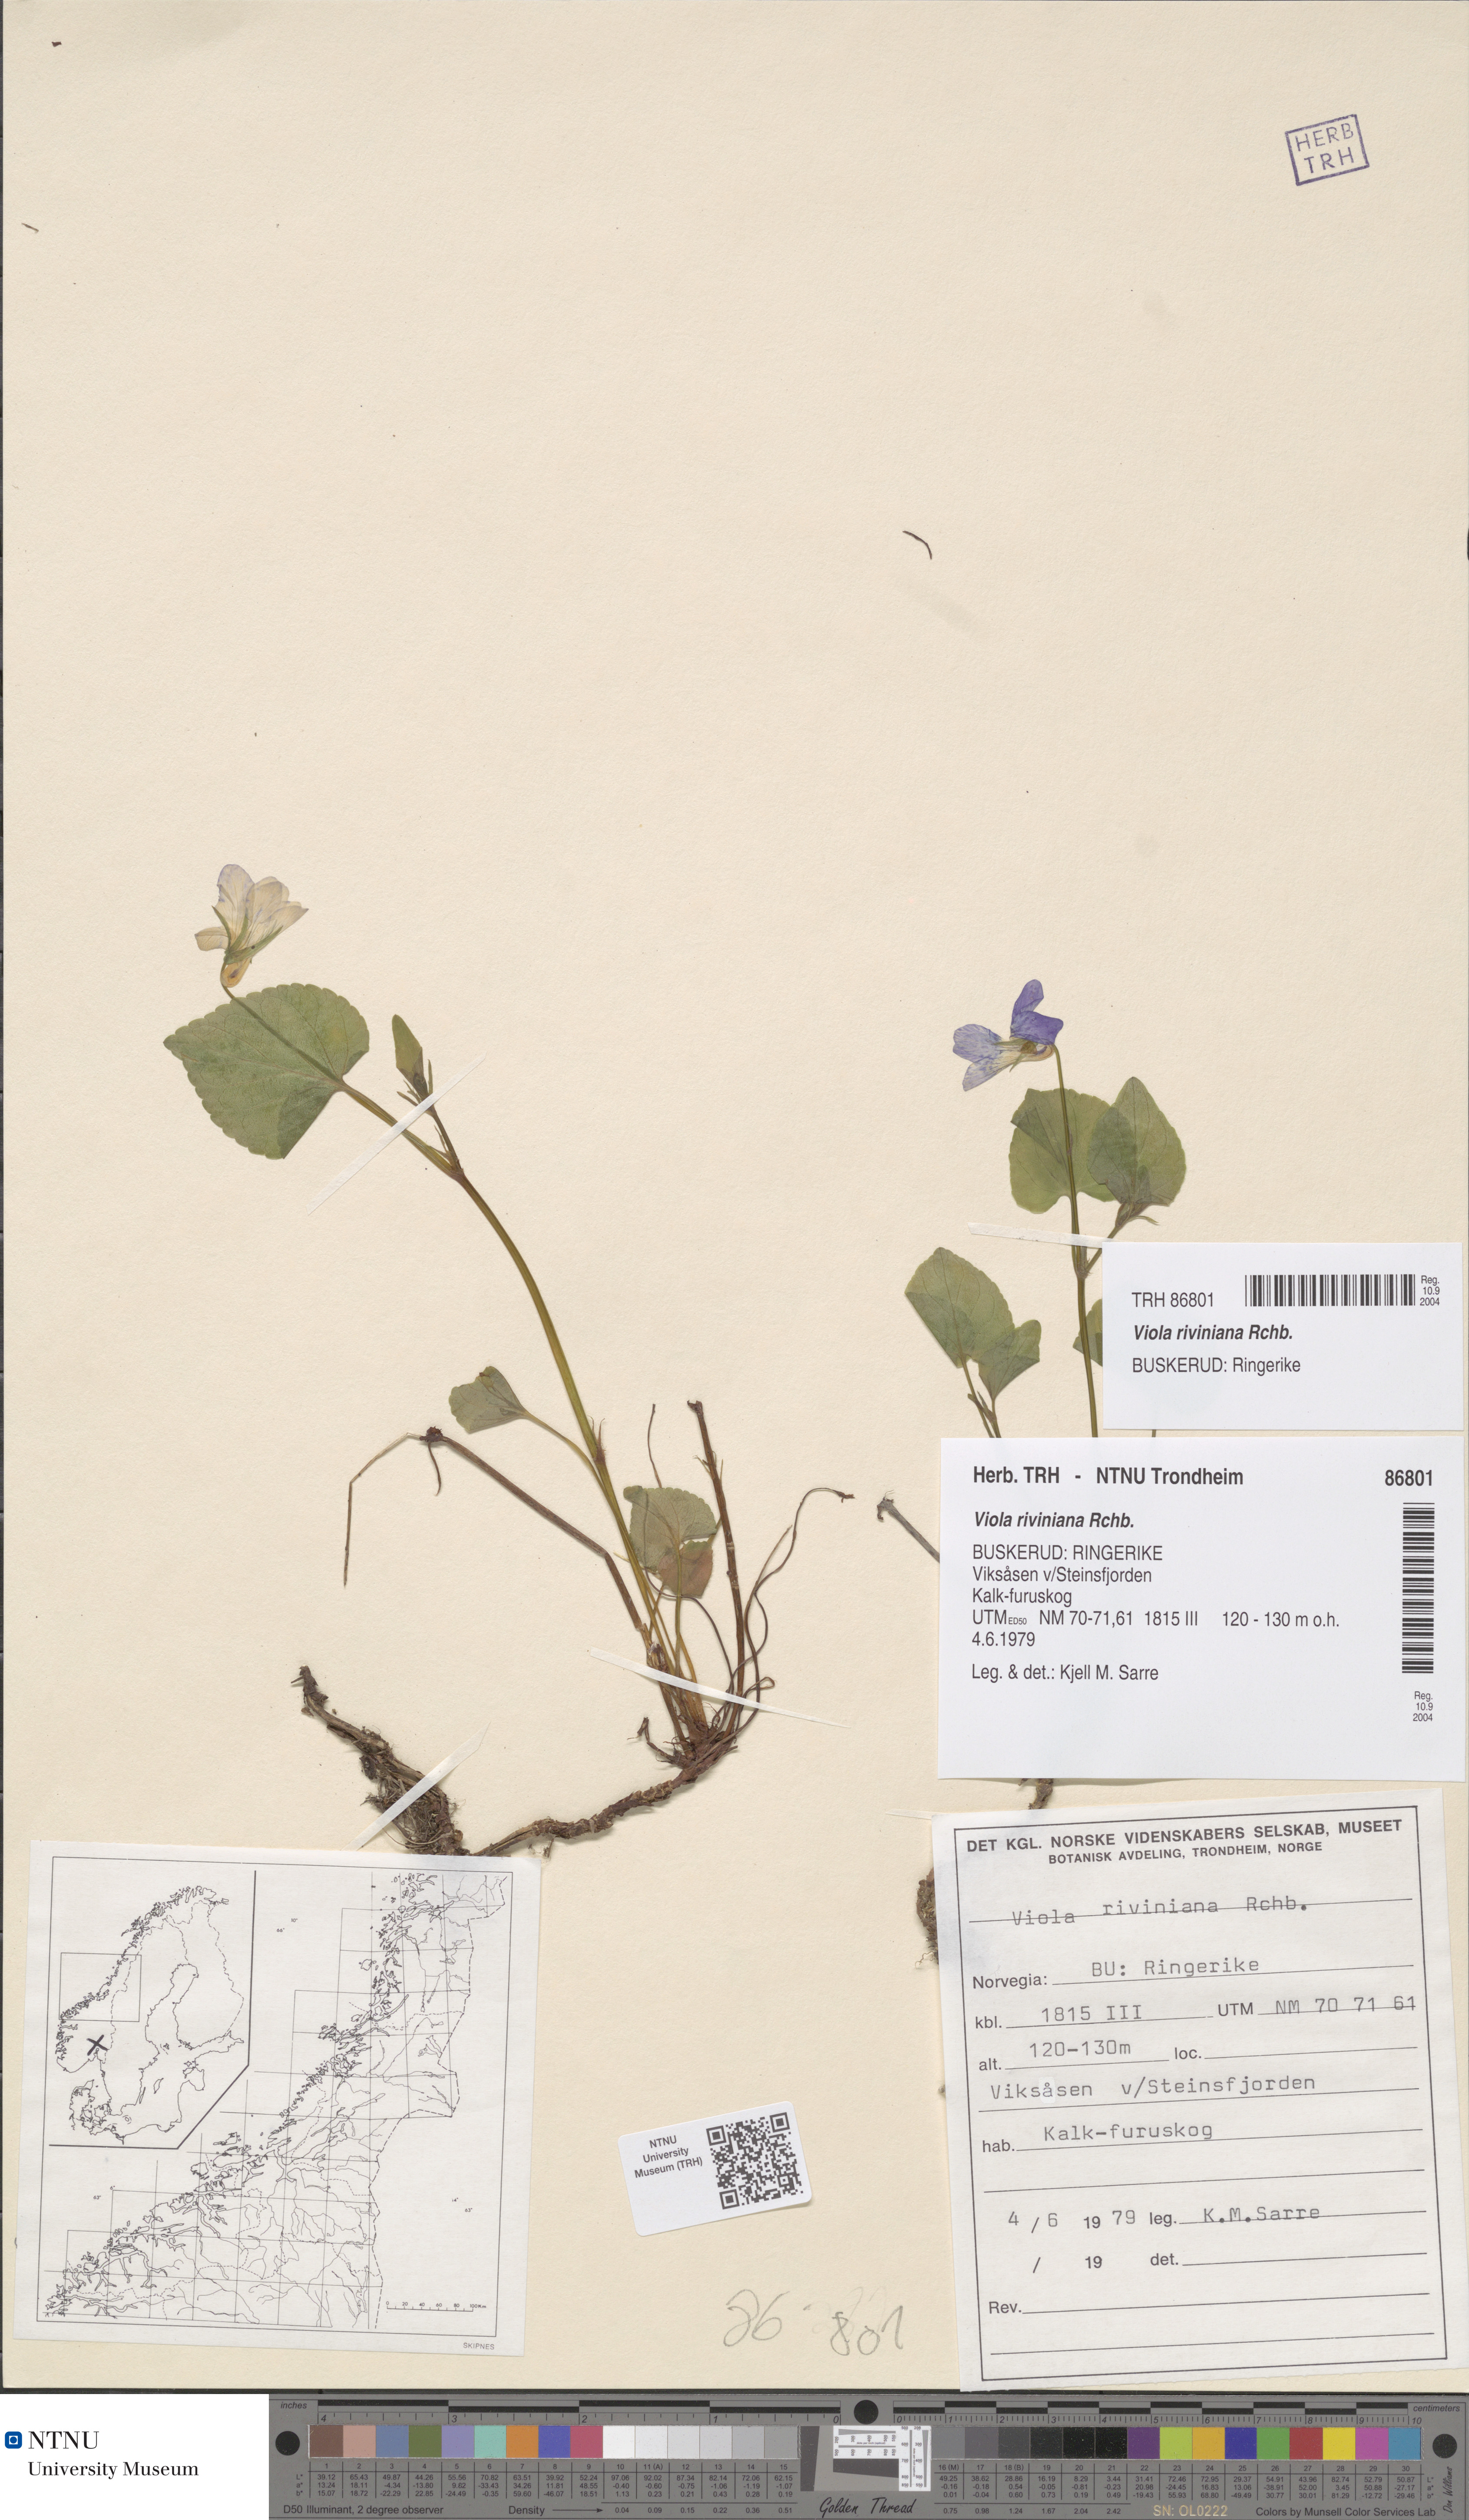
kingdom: Plantae
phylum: Tracheophyta
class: Magnoliopsida
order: Malpighiales
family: Violaceae
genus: Viola
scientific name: Viola riviniana
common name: Common dog-violet
